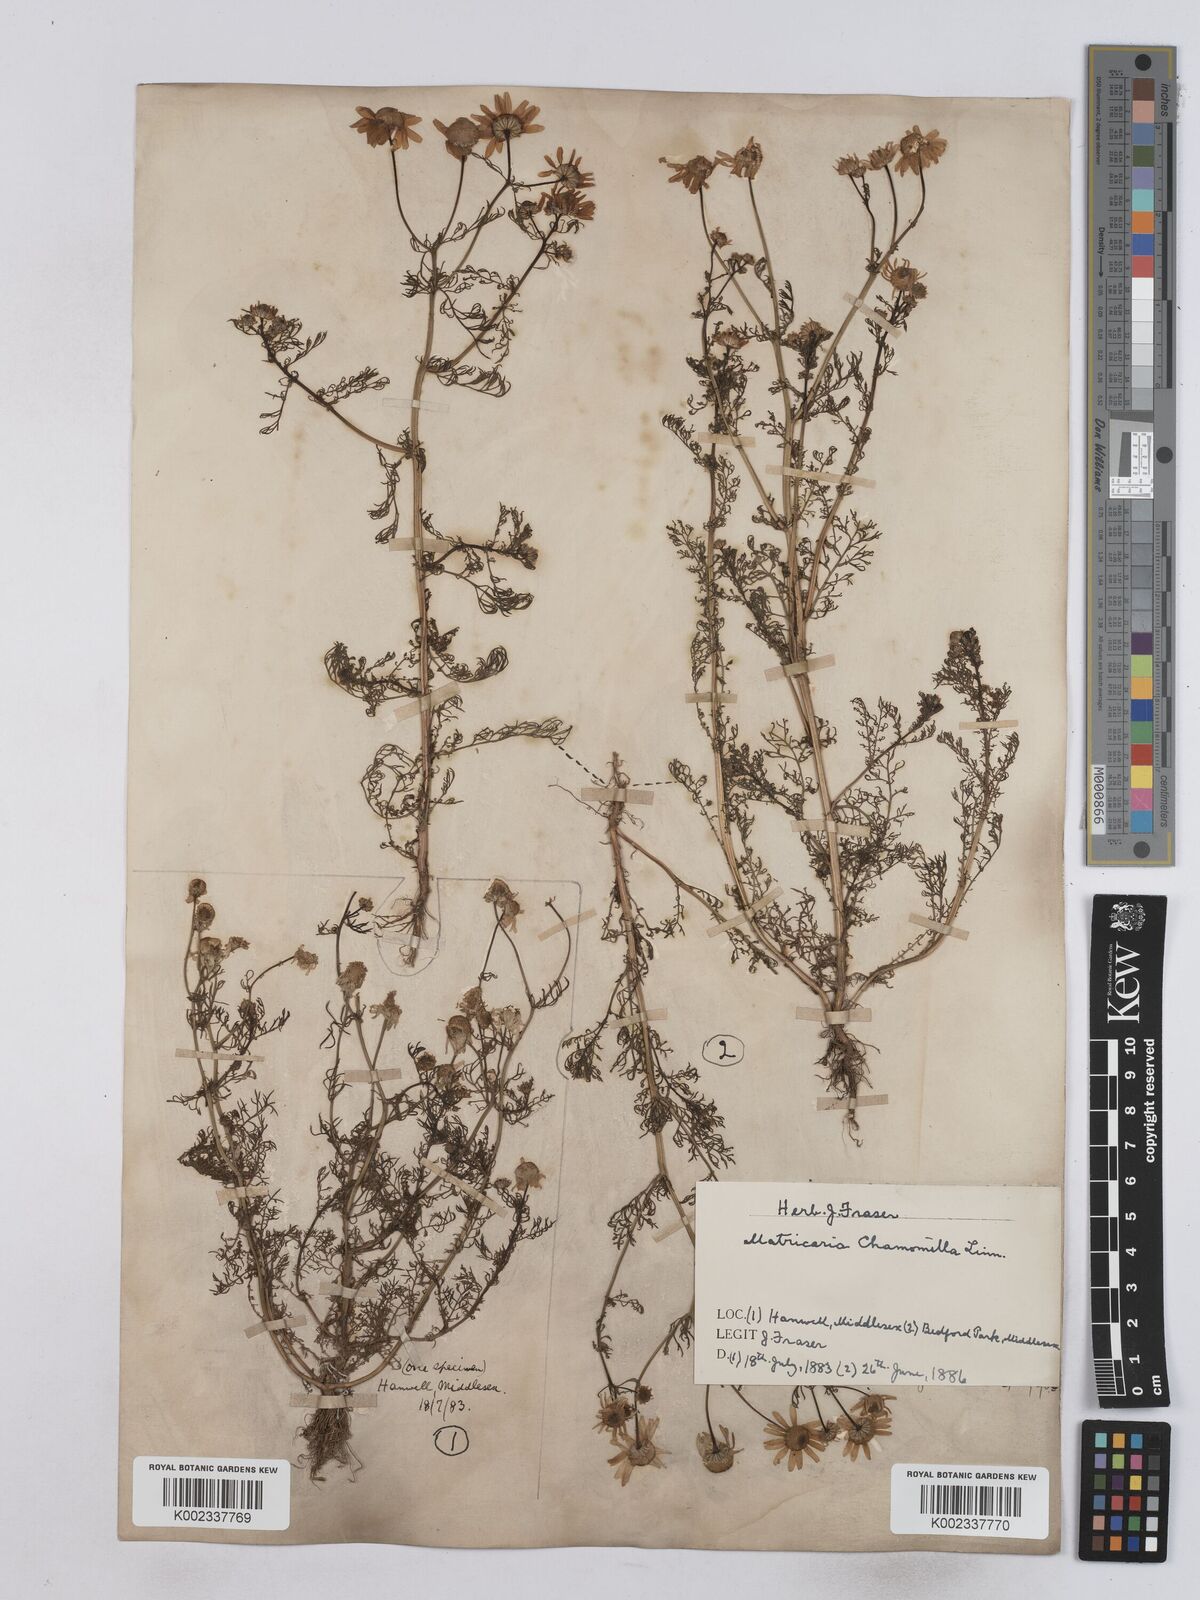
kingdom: Plantae
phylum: Tracheophyta
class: Magnoliopsida
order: Asterales
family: Asteraceae
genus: Matricaria
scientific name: Matricaria chamomilla
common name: Scented mayweed
